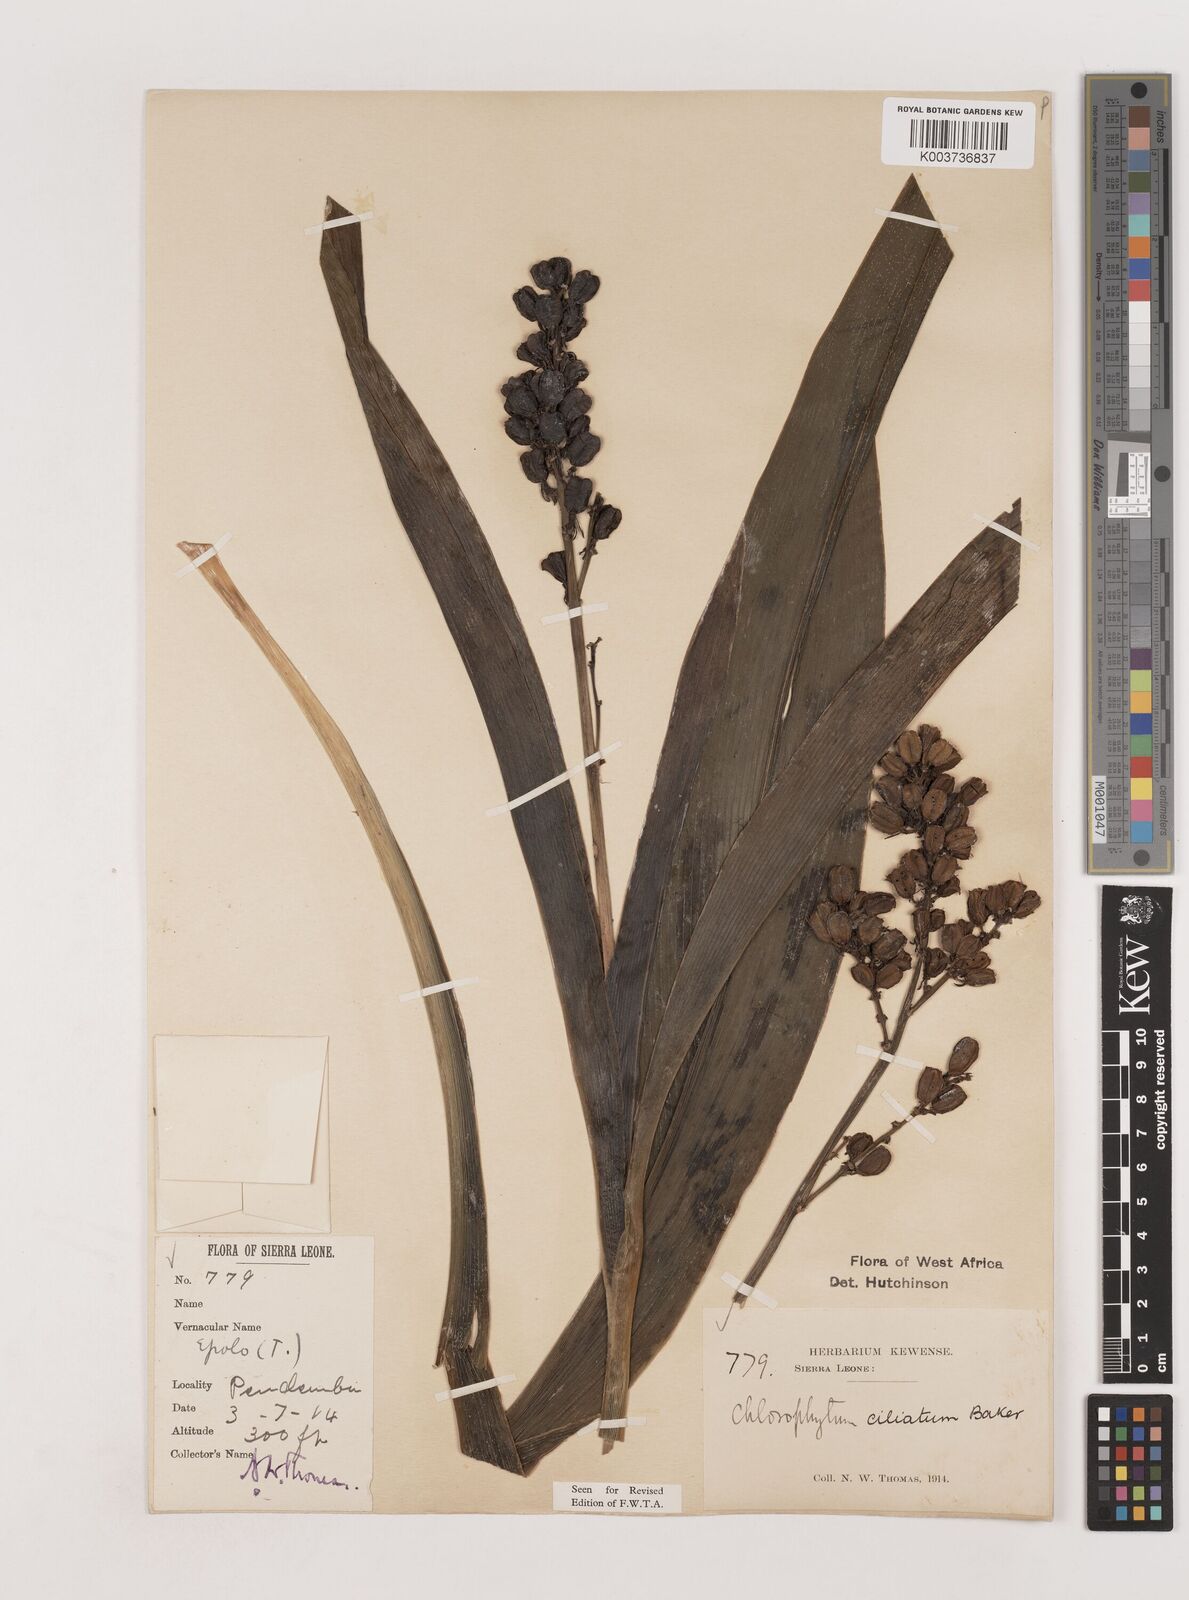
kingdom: Plantae
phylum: Tracheophyta
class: Liliopsida
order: Asparagales
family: Asparagaceae
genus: Chlorophytum
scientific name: Chlorophytum blepharophyllum
